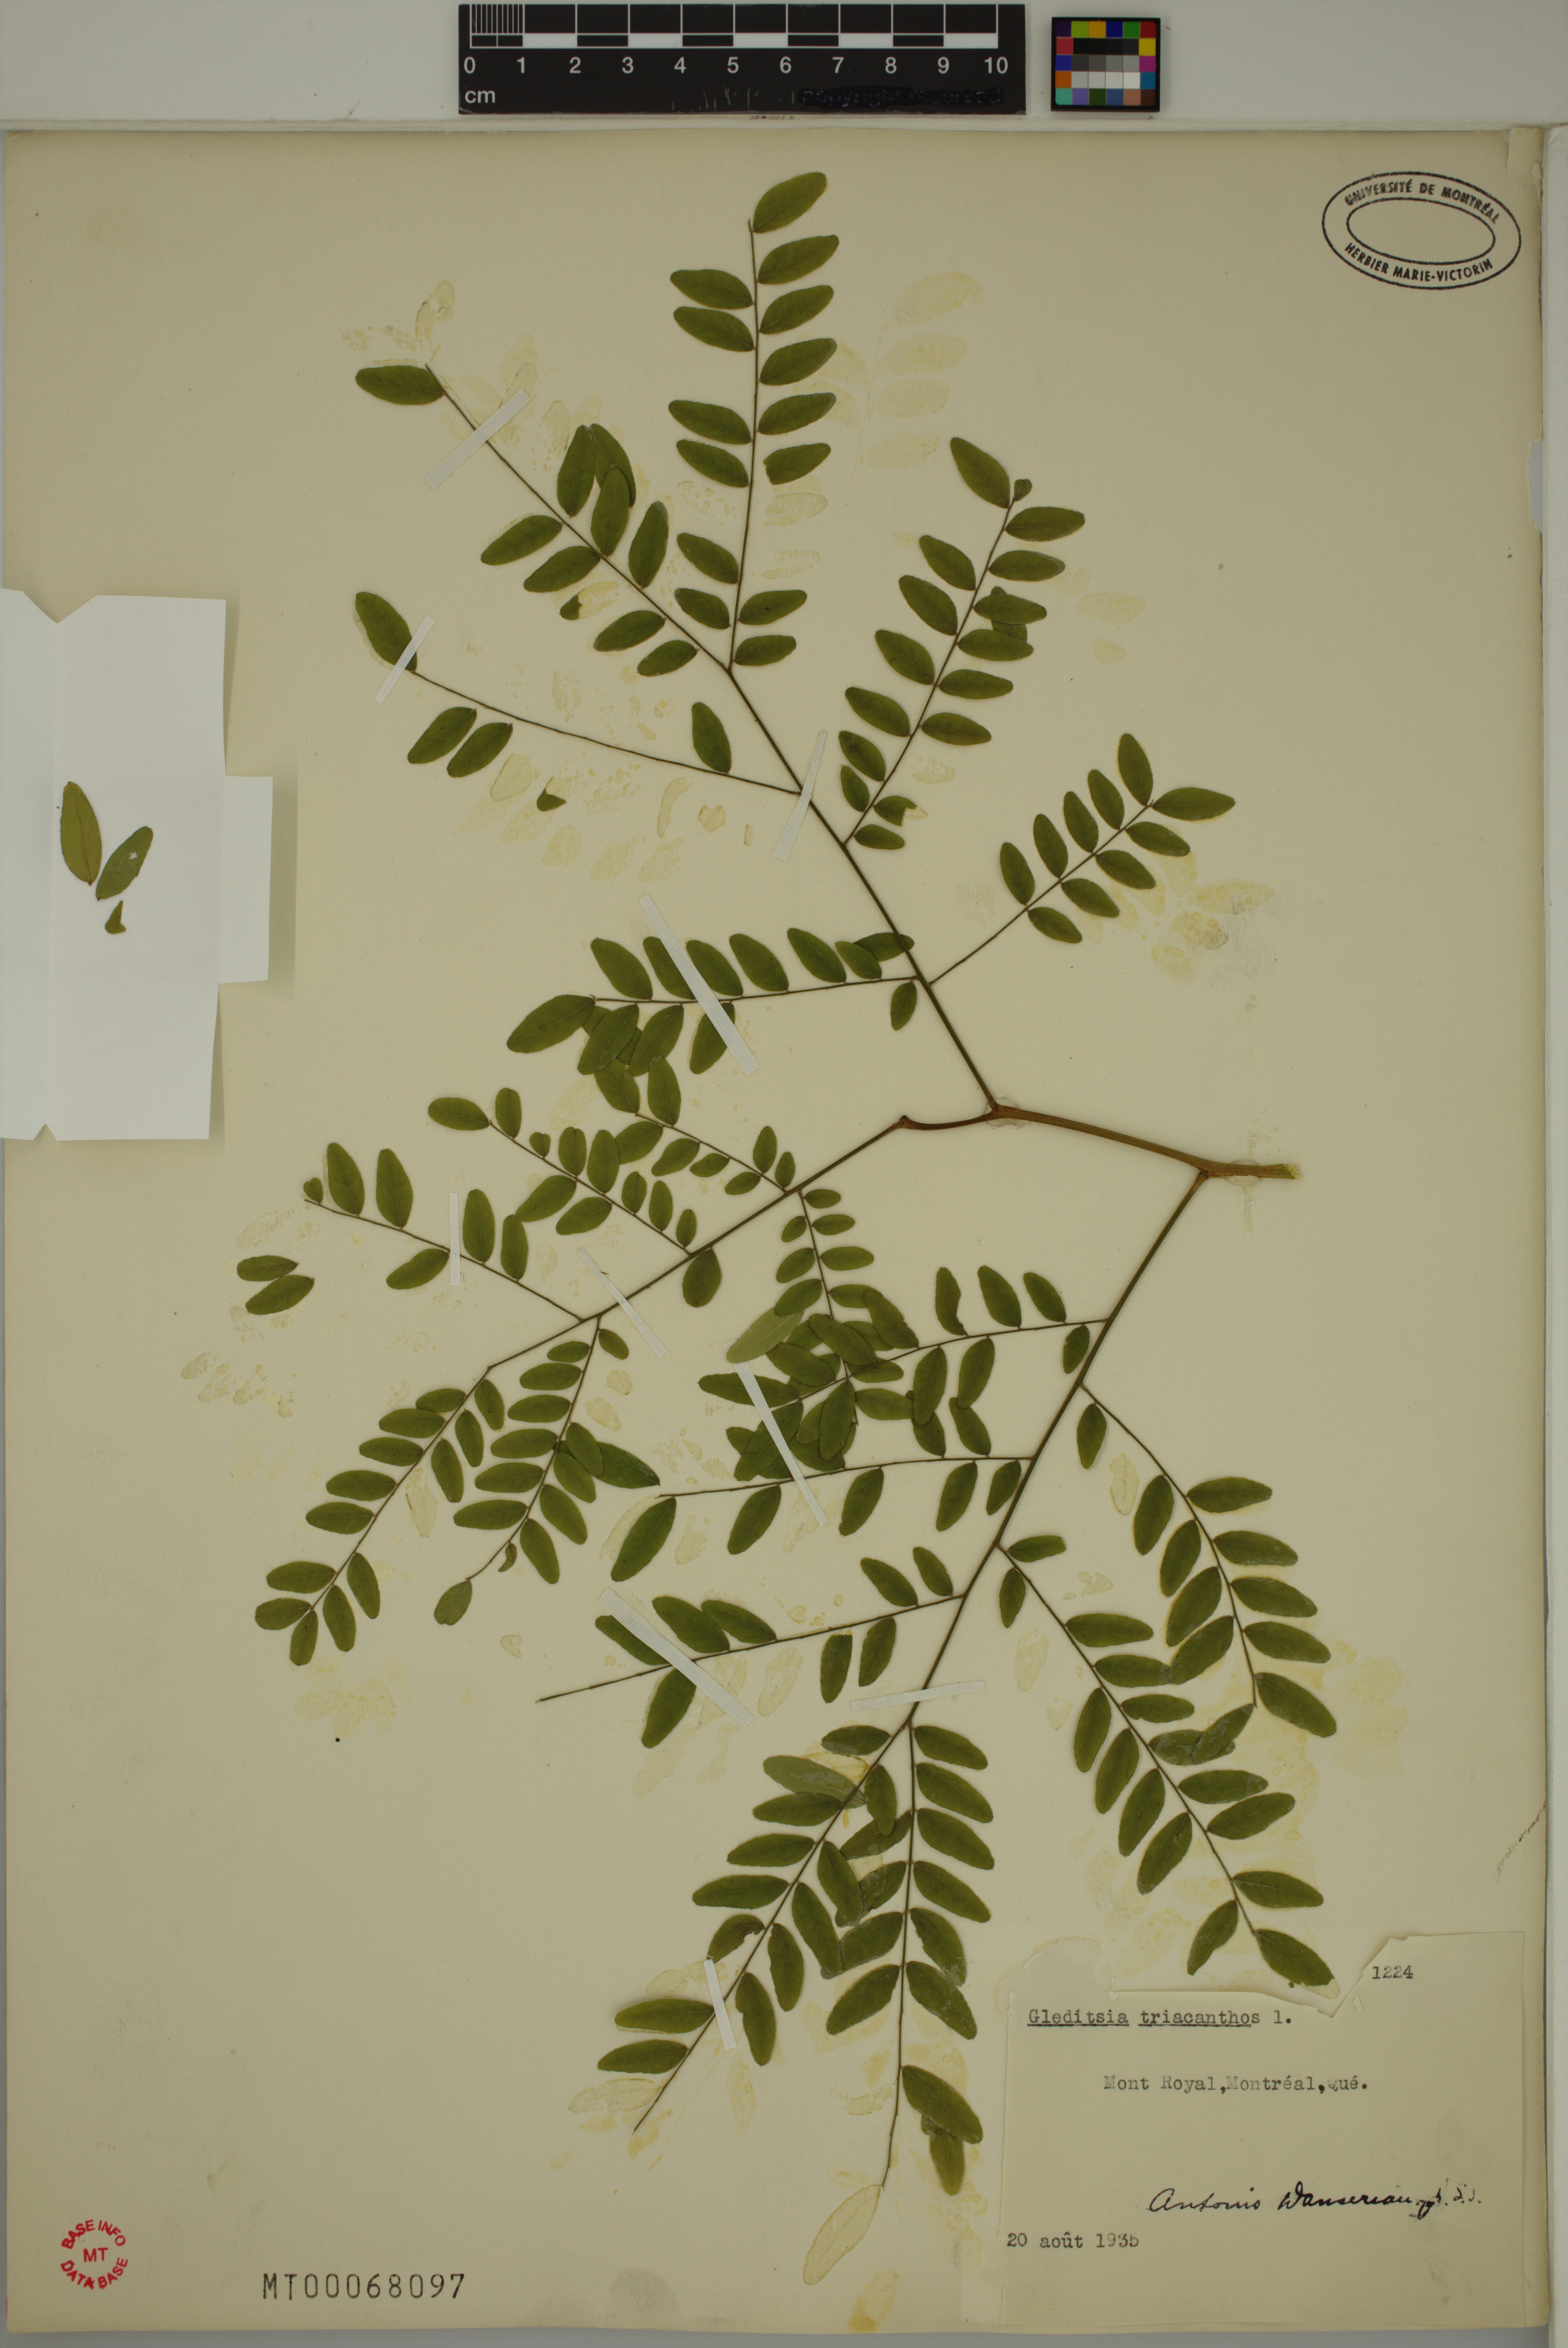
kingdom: Plantae
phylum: Tracheophyta
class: Magnoliopsida
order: Fabales
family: Fabaceae
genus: Gleditsia
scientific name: Gleditsia triacanthos
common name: Common honeylocust
